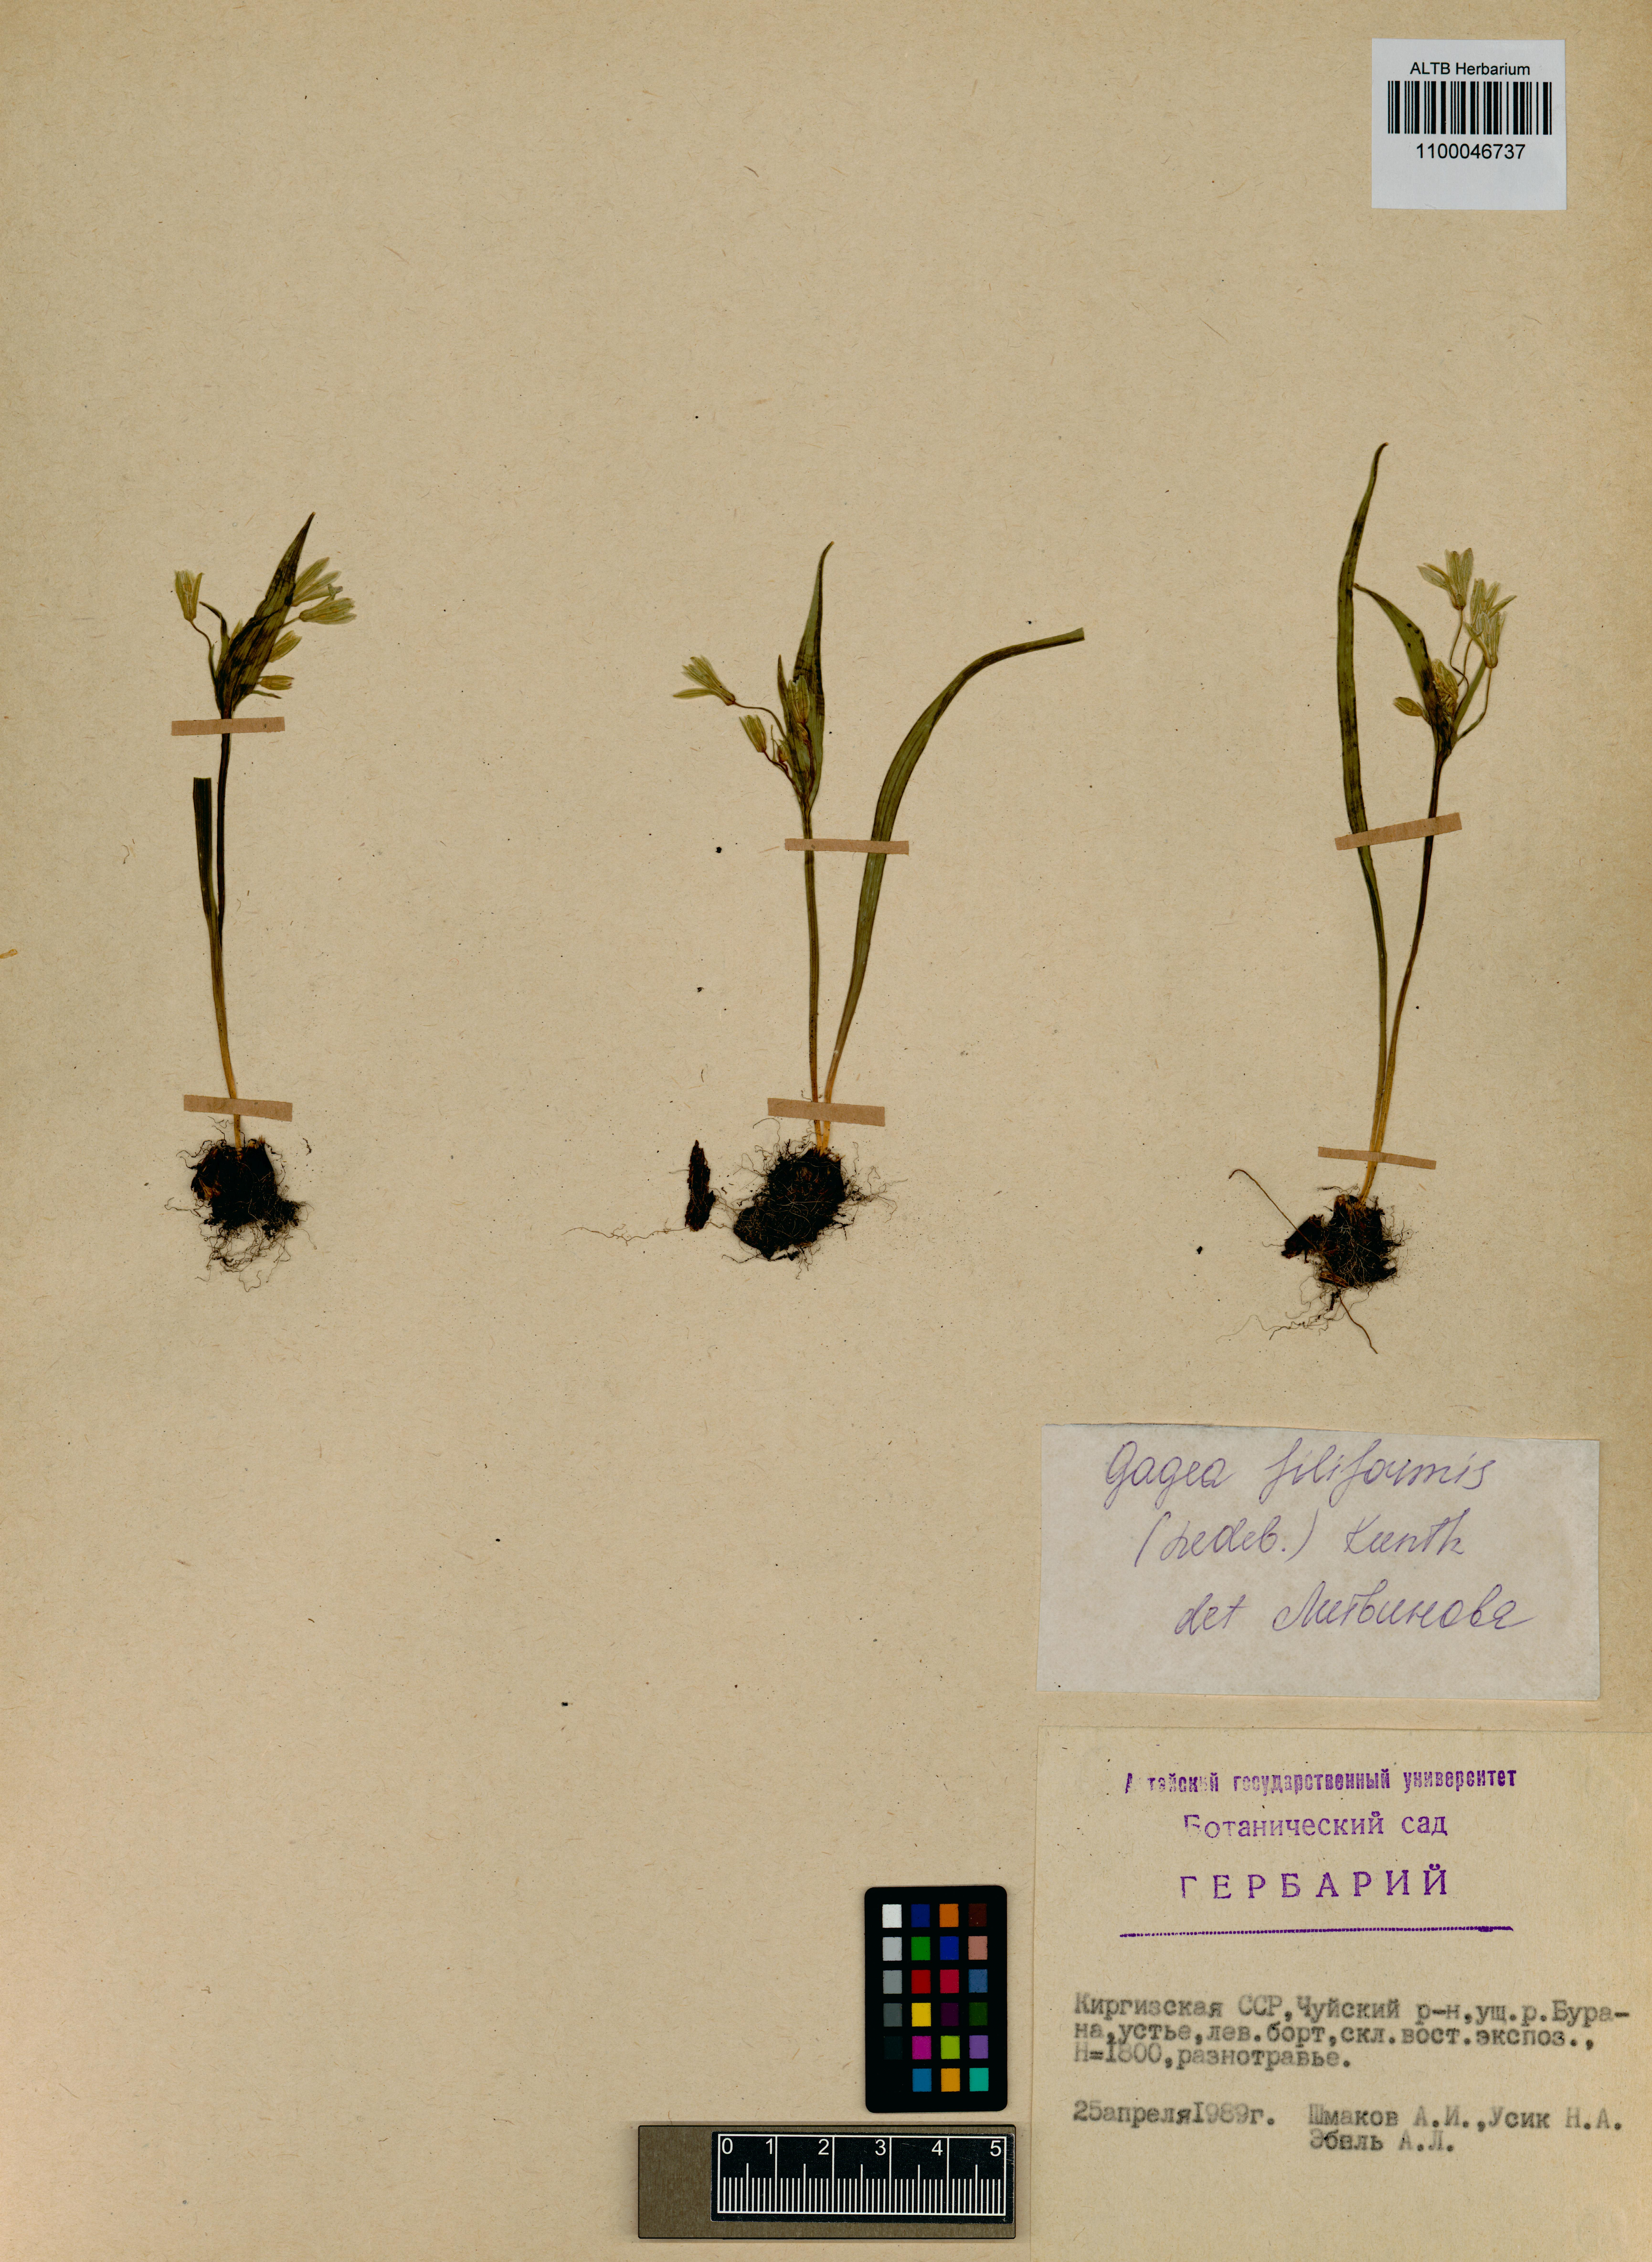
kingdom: Plantae
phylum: Tracheophyta
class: Liliopsida
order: Liliales
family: Liliaceae
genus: Gagea
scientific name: Gagea filiformis
